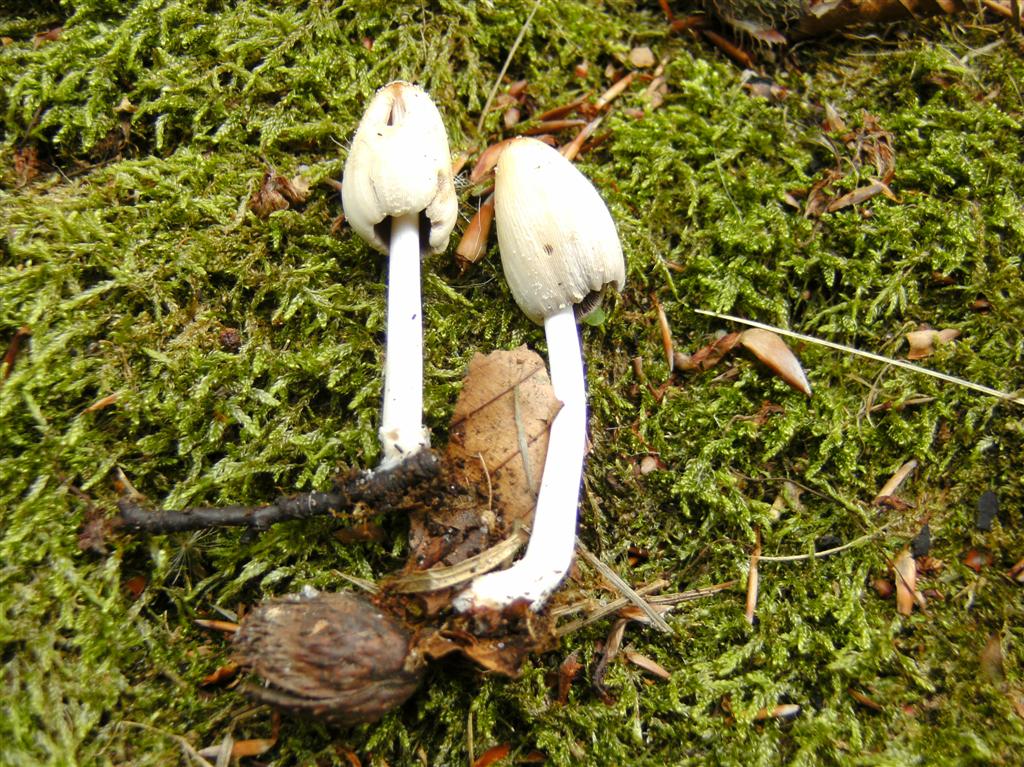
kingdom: Fungi
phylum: Basidiomycota
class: Agaricomycetes
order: Agaricales
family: Psathyrellaceae
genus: Coprinellus
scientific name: Coprinellus radians
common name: grynet blækhat
